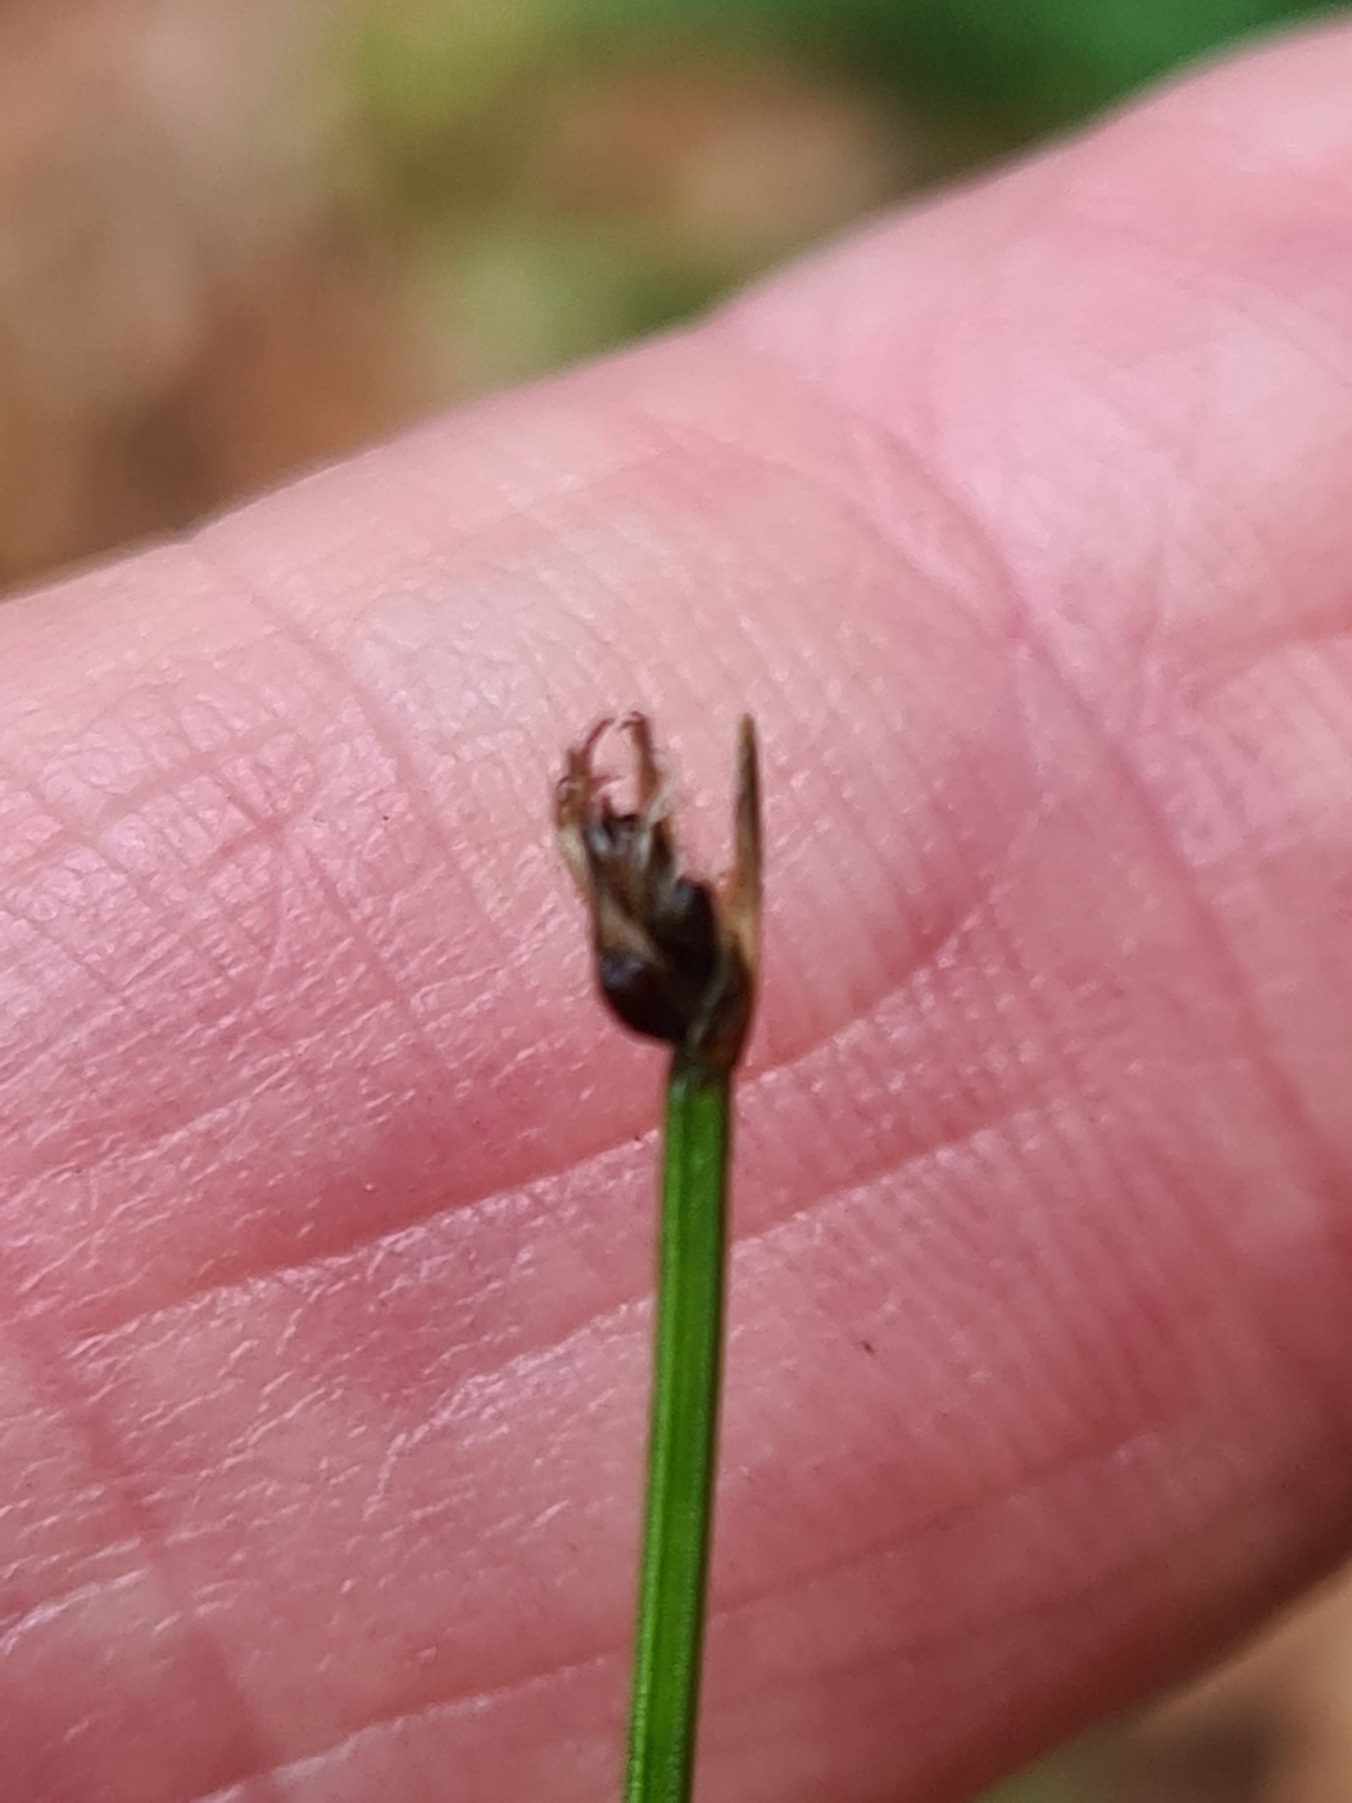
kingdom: Plantae
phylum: Tracheophyta
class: Liliopsida
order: Poales
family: Cyperaceae
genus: Trichophorum
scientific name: Trichophorum cespitosum
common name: Tuekogleaks
